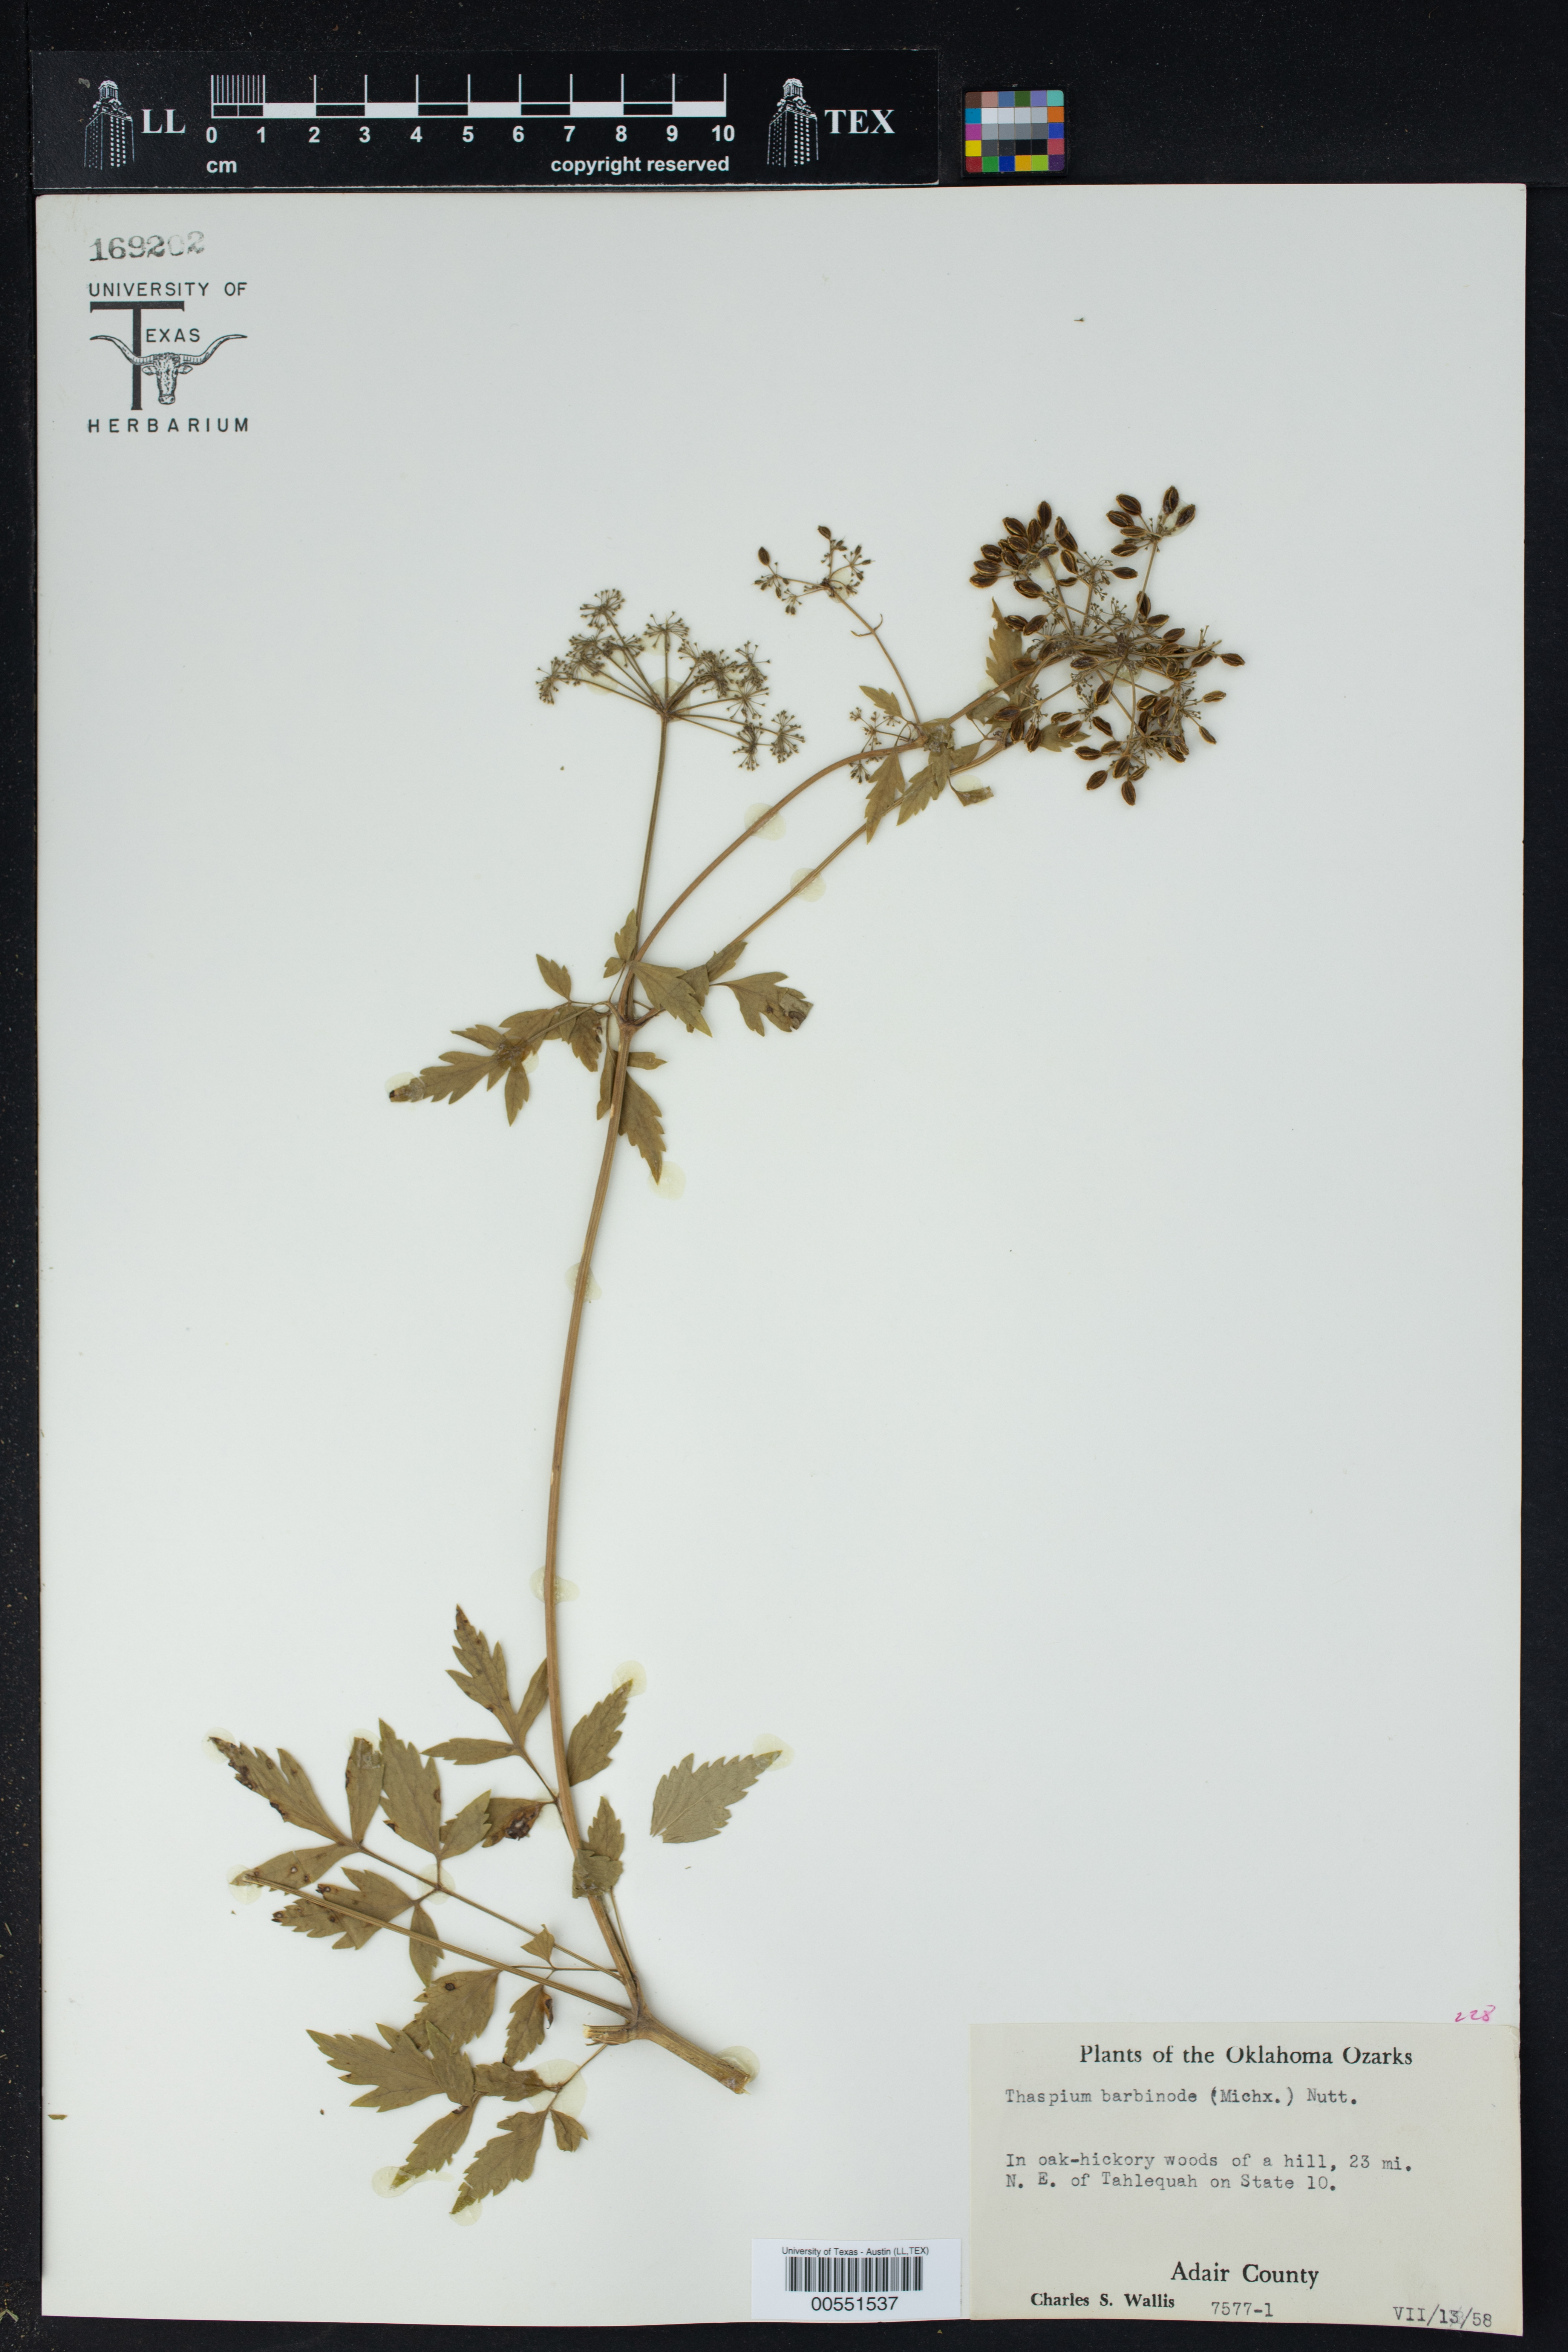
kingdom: Plantae
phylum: Tracheophyta
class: Magnoliopsida
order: Apiales
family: Apiaceae
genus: Thaspium
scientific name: Thaspium barbinode
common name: Bearded meadow-parsnip
